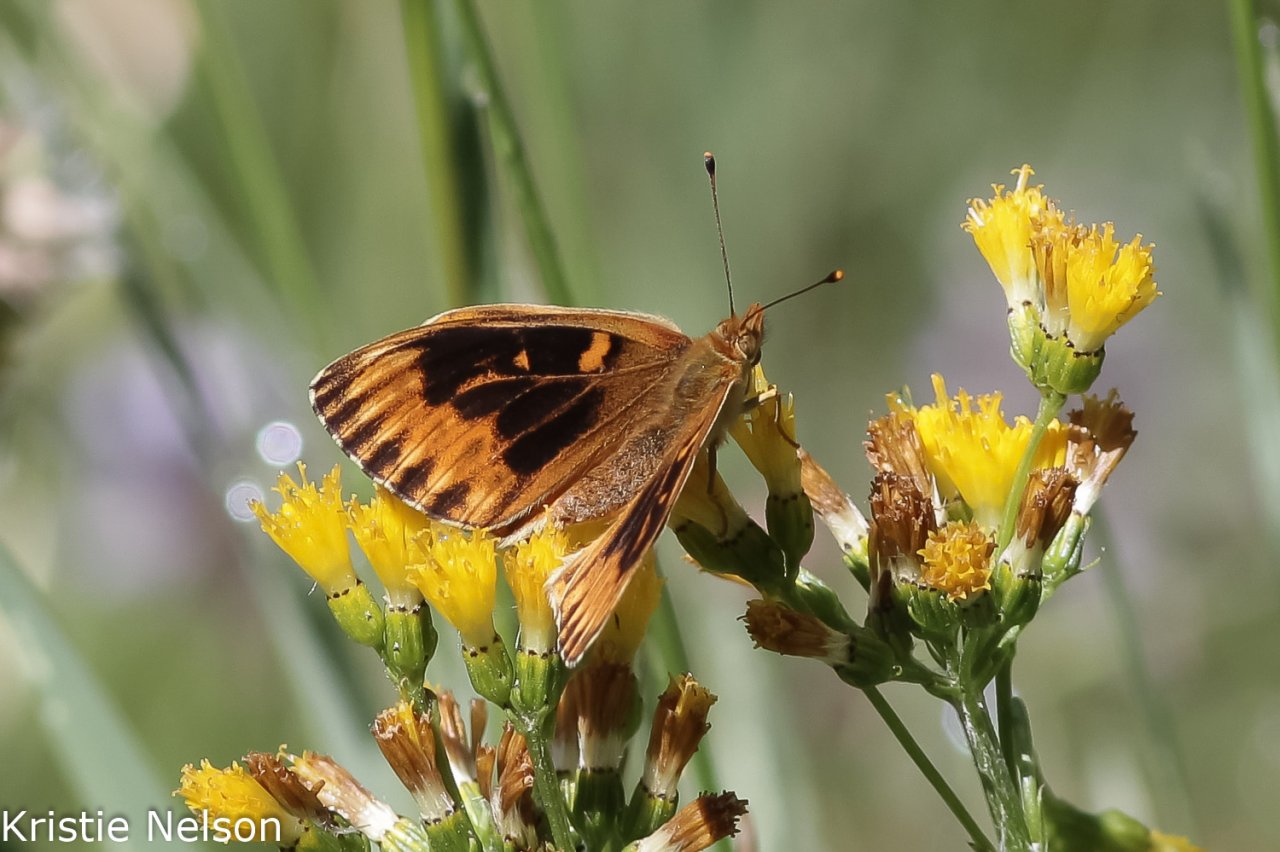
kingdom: Animalia
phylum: Arthropoda
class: Insecta
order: Lepidoptera
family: Nymphalidae
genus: Speyeria
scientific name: Speyeria mormonia
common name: Mormon Fritillary
